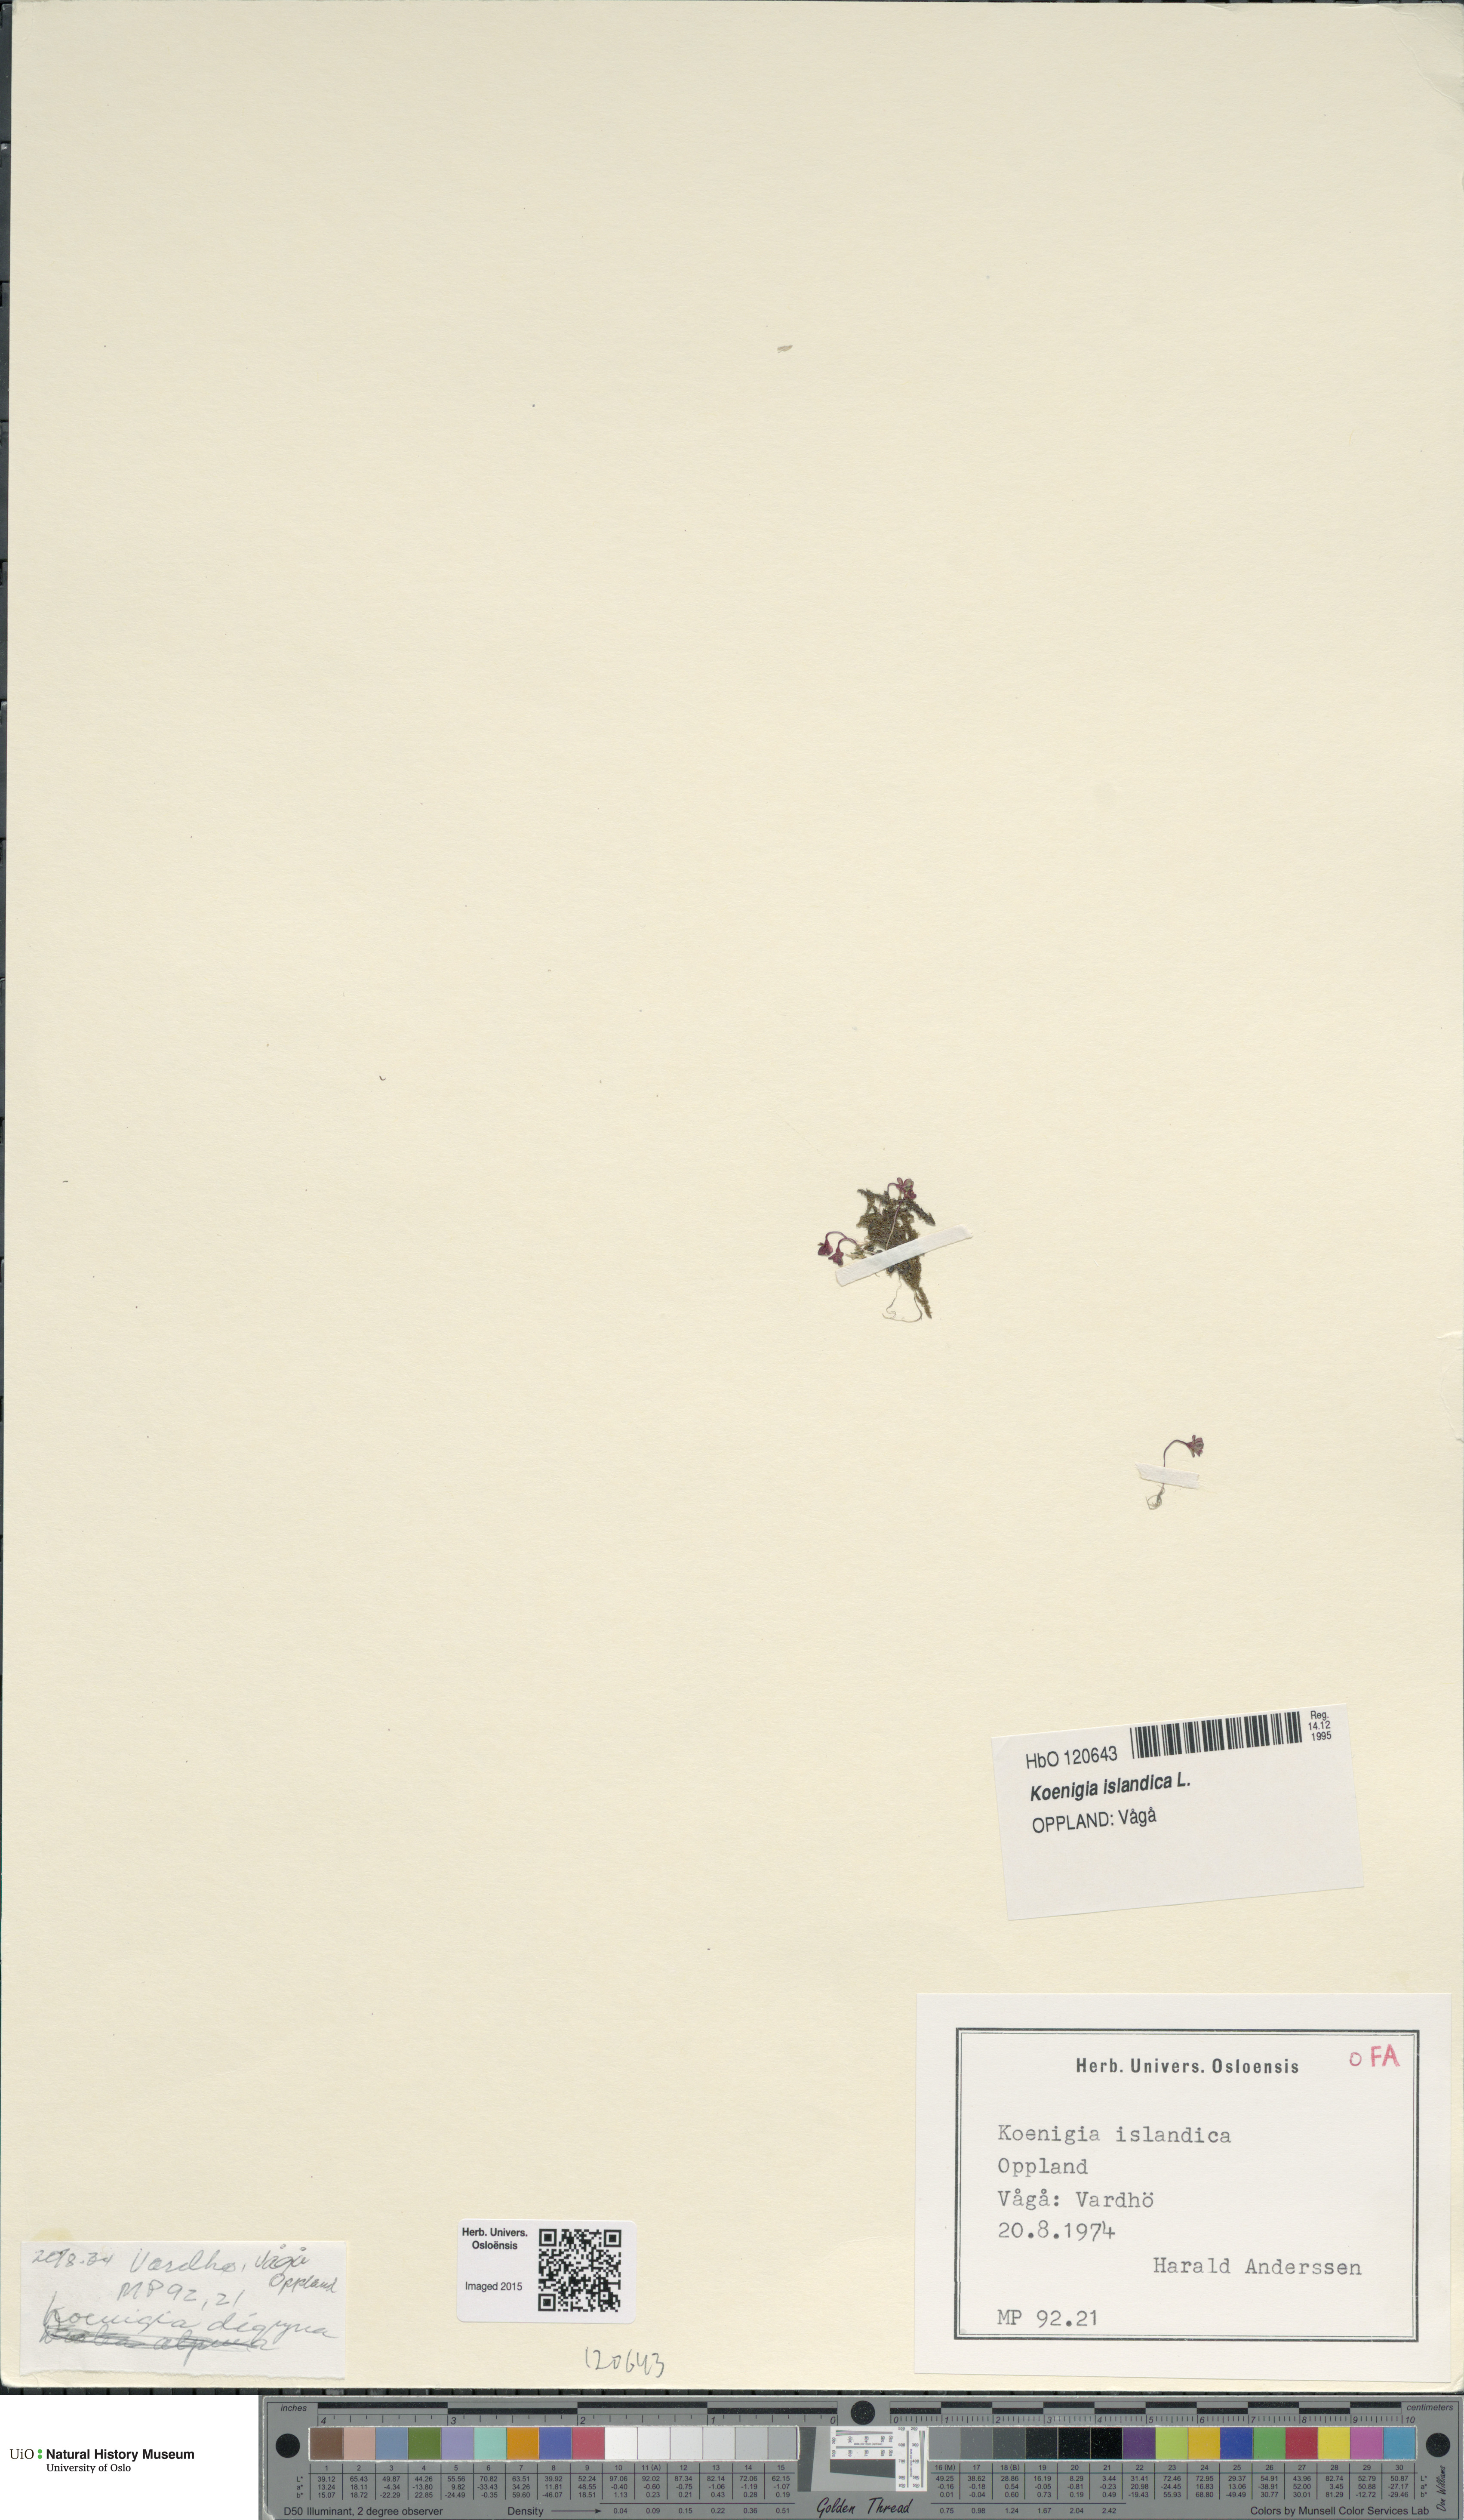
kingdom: Plantae
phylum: Tracheophyta
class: Magnoliopsida
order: Caryophyllales
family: Polygonaceae
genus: Koenigia
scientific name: Koenigia islandica
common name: Iceland-purslane
